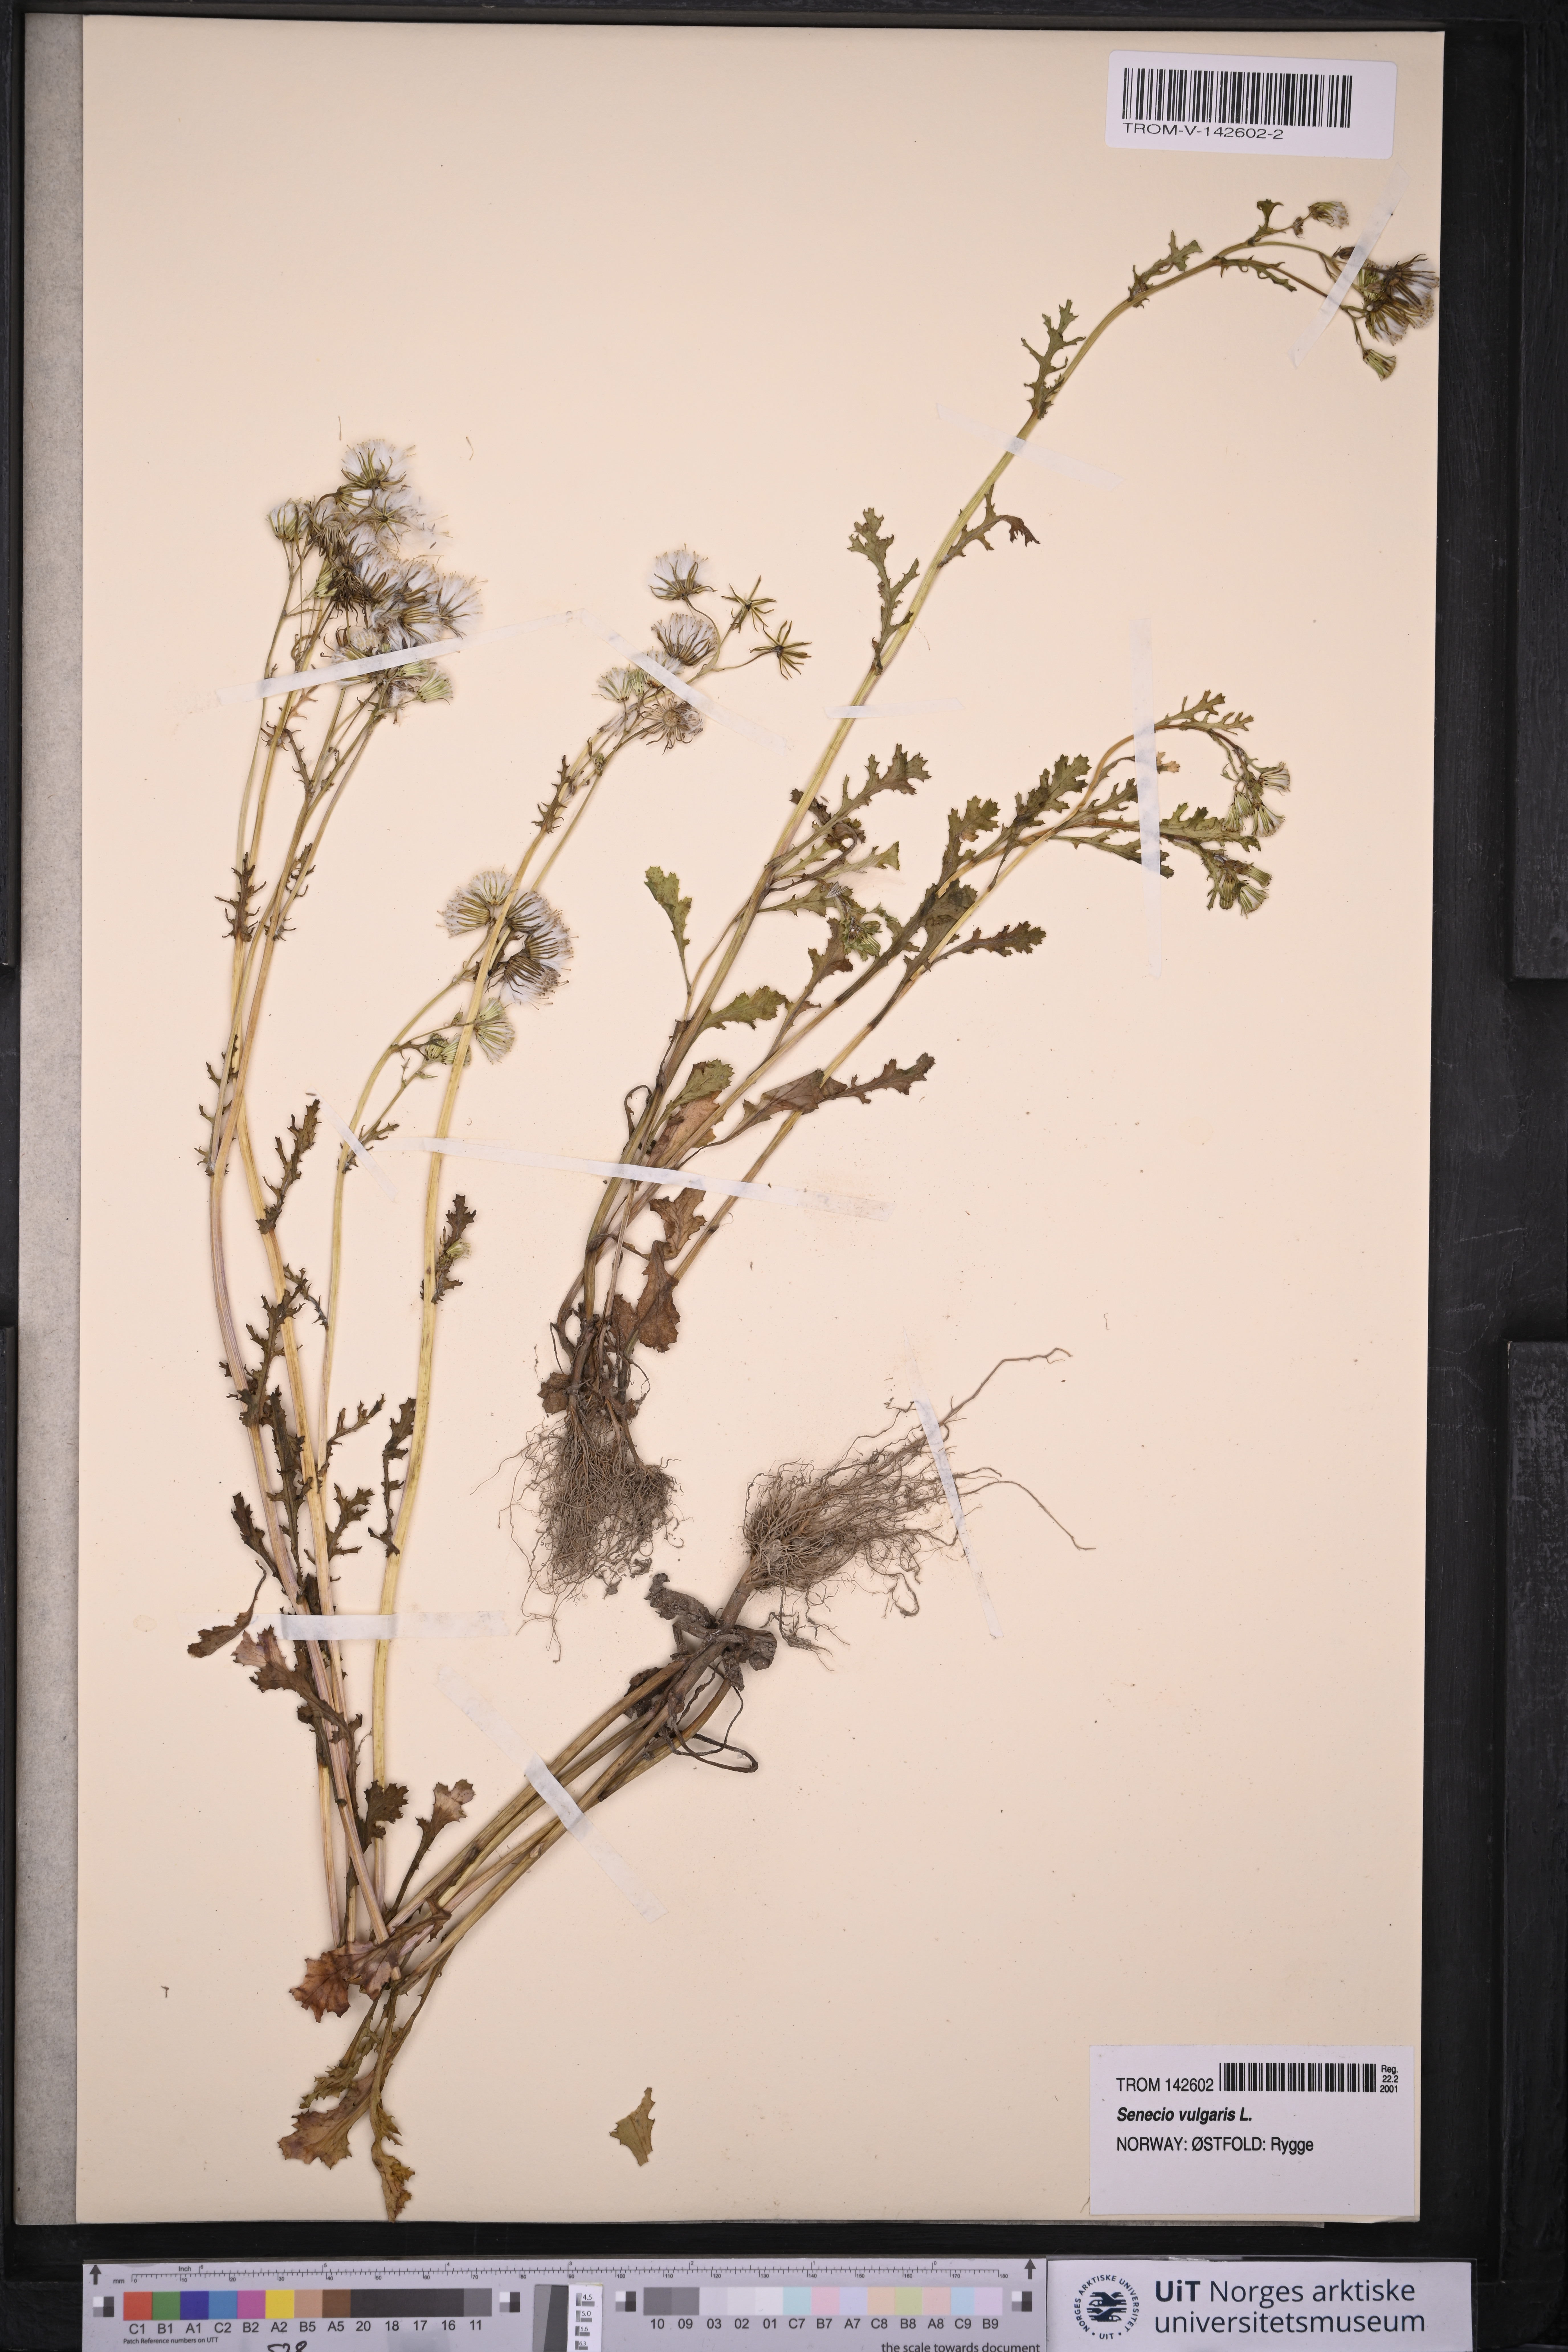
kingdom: Plantae
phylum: Tracheophyta
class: Magnoliopsida
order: Asterales
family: Asteraceae
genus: Senecio
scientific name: Senecio vulgaris
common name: Old-man-in-the-spring
